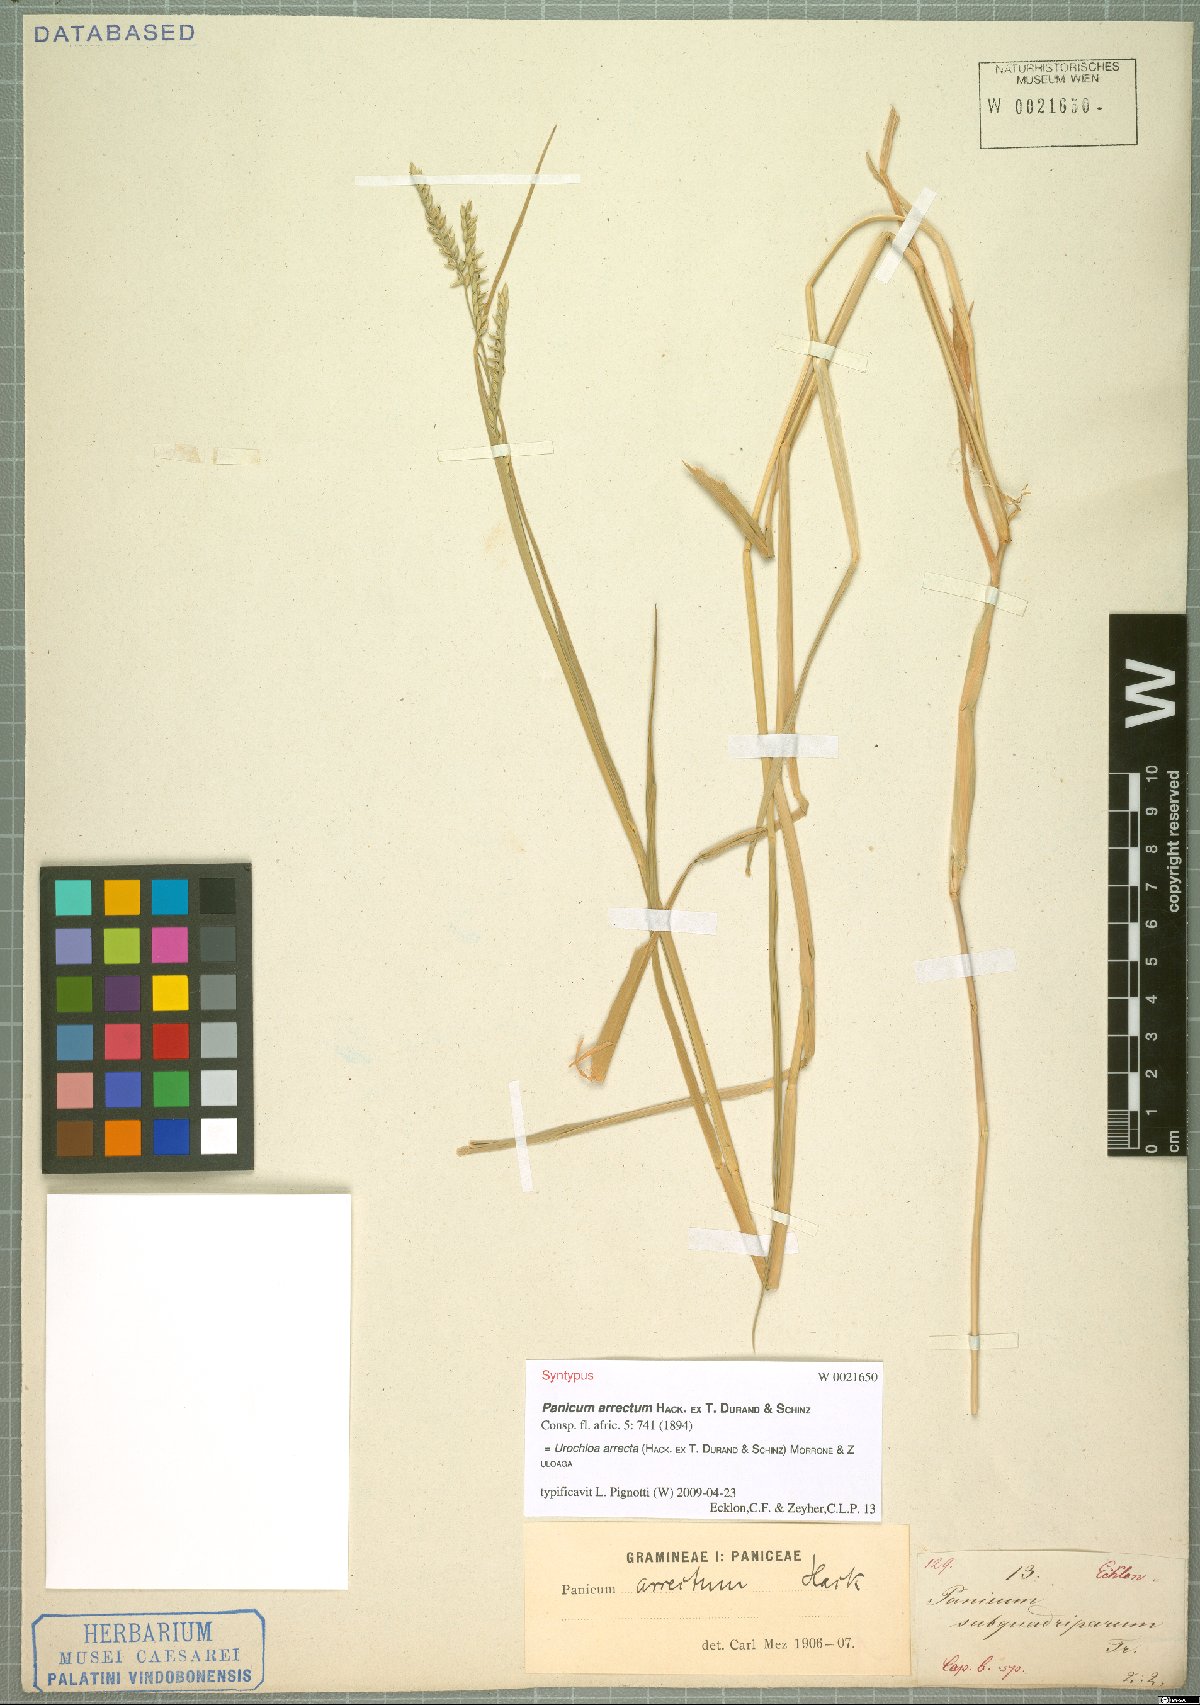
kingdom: Plantae
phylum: Tracheophyta
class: Liliopsida
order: Poales
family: Poaceae
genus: Urochloa
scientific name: Urochloa arrecta
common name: African signalgrass
